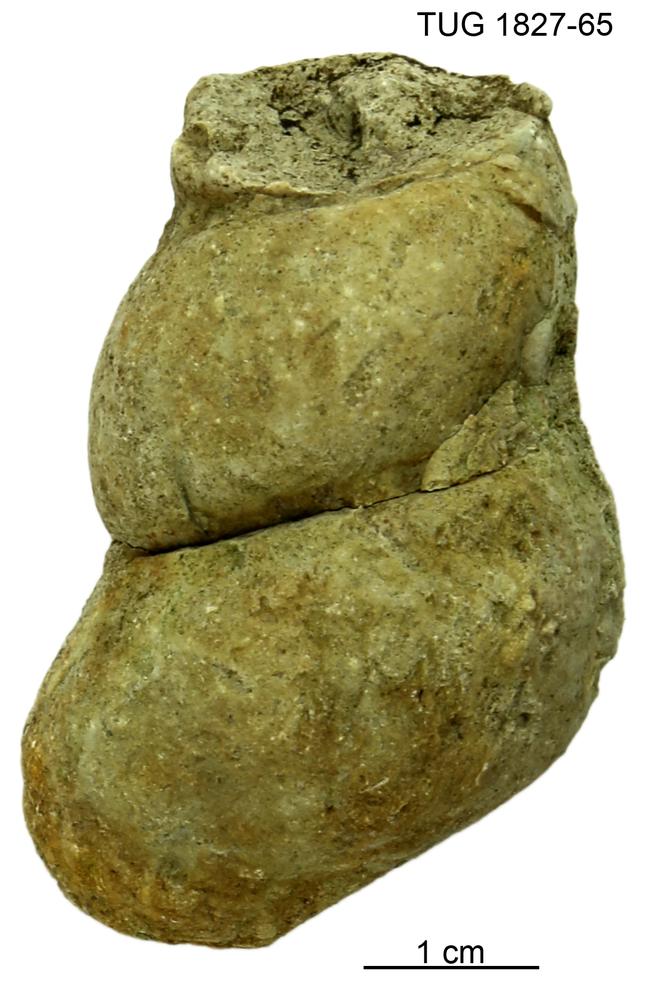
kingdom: Animalia
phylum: Mollusca
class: Gastropoda
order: Pleurotomariida
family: Murchisoniidae
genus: Hormotoma
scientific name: Hormotoma
